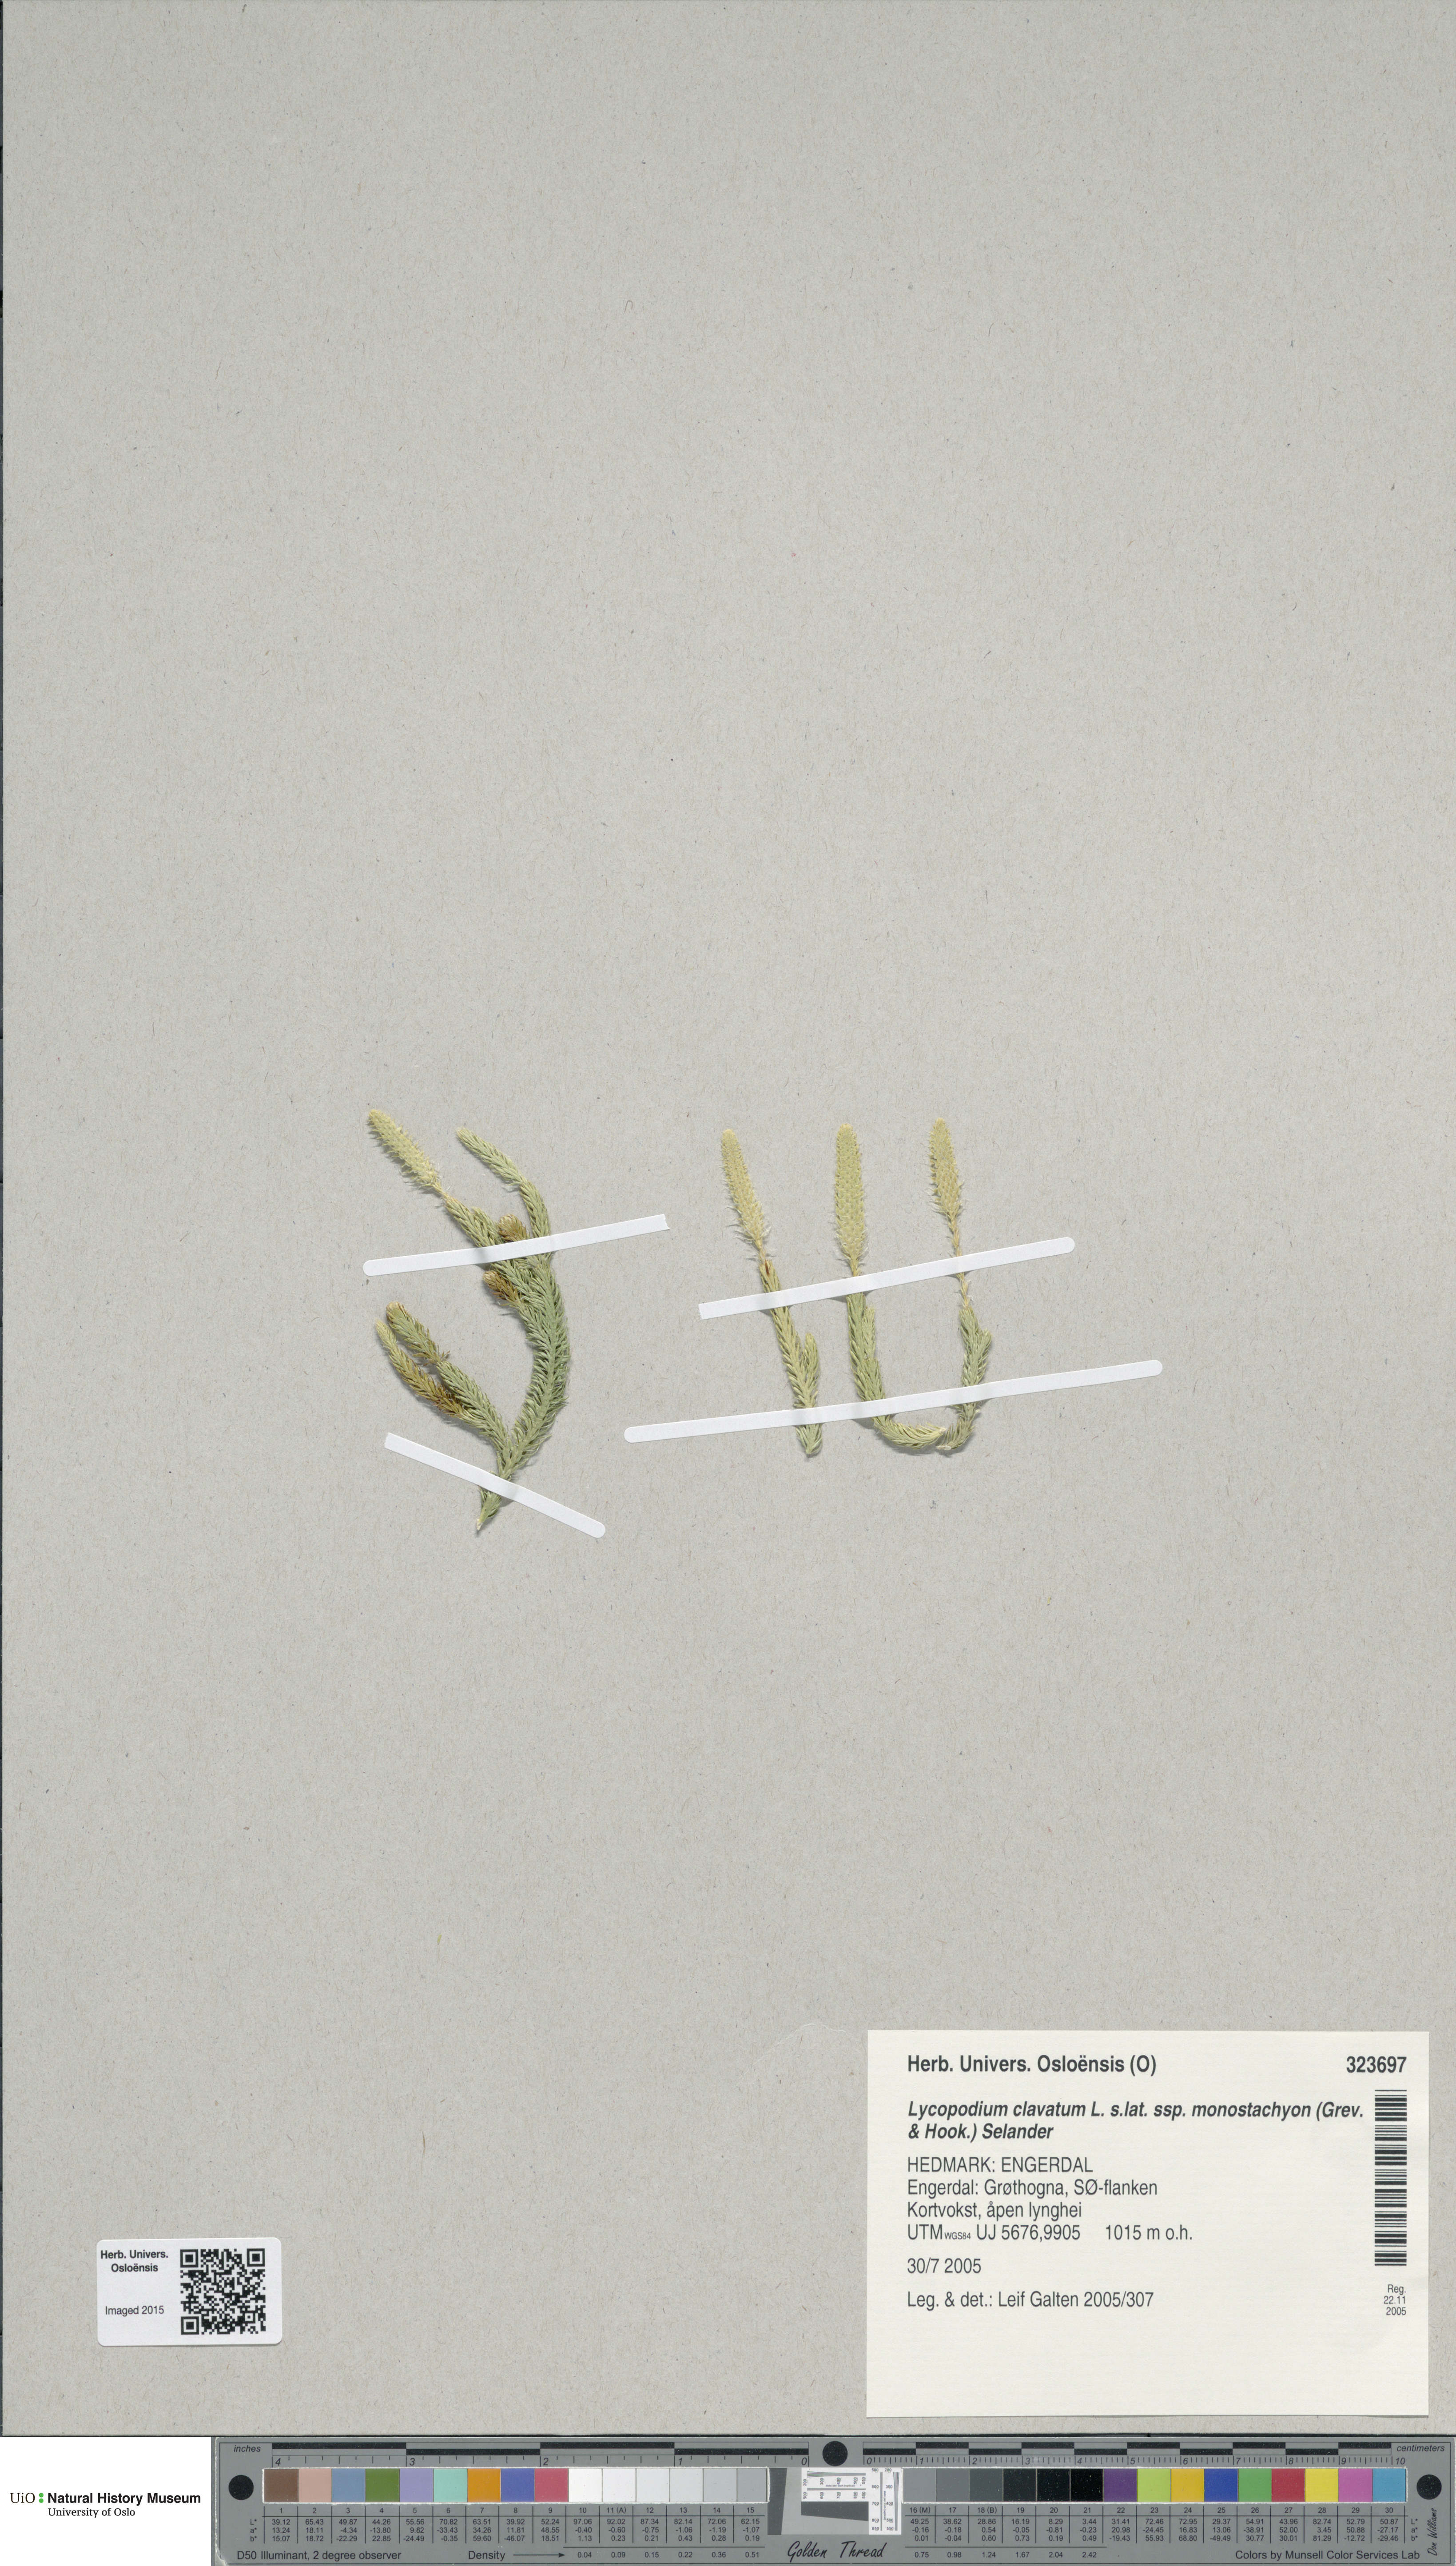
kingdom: Plantae
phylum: Tracheophyta
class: Lycopodiopsida
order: Lycopodiales
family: Lycopodiaceae
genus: Lycopodium
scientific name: Lycopodium lagopus
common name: One-cone clubmoss
